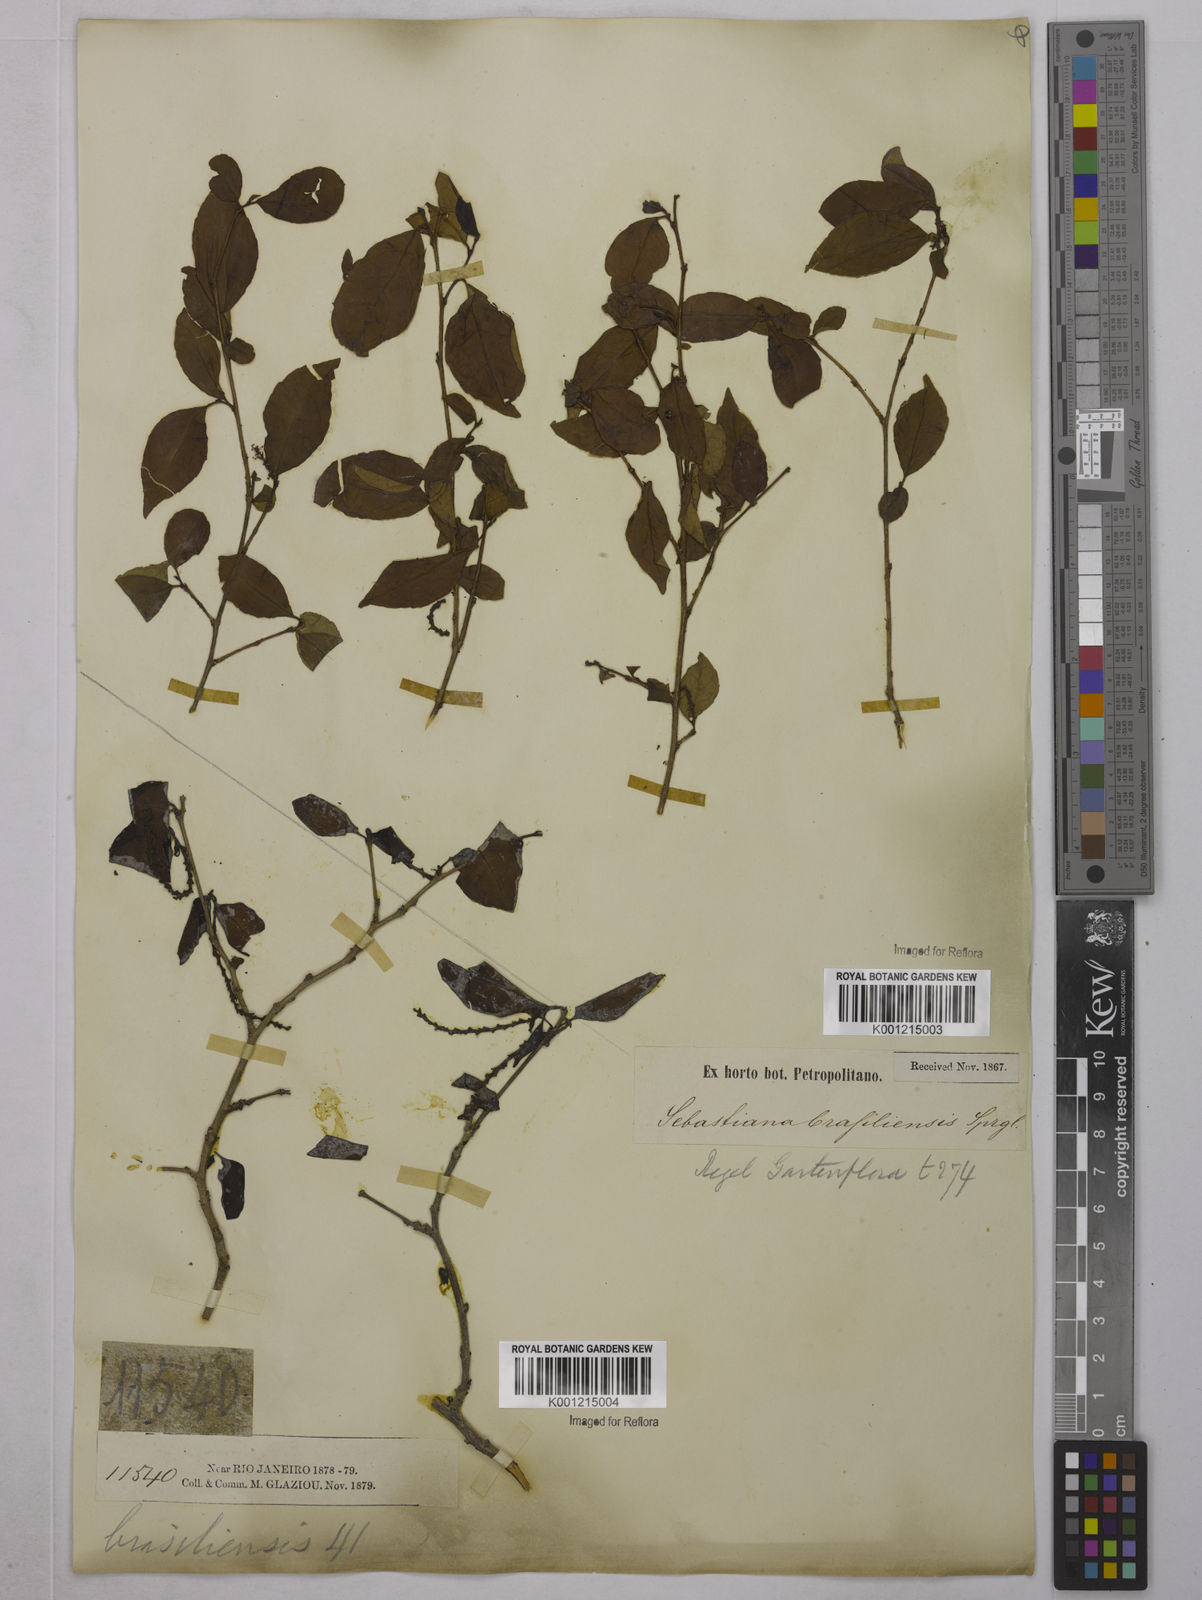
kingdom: Plantae
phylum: Tracheophyta
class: Magnoliopsida
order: Malpighiales
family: Euphorbiaceae
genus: Sebastiania
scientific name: Sebastiania brasiliensis
